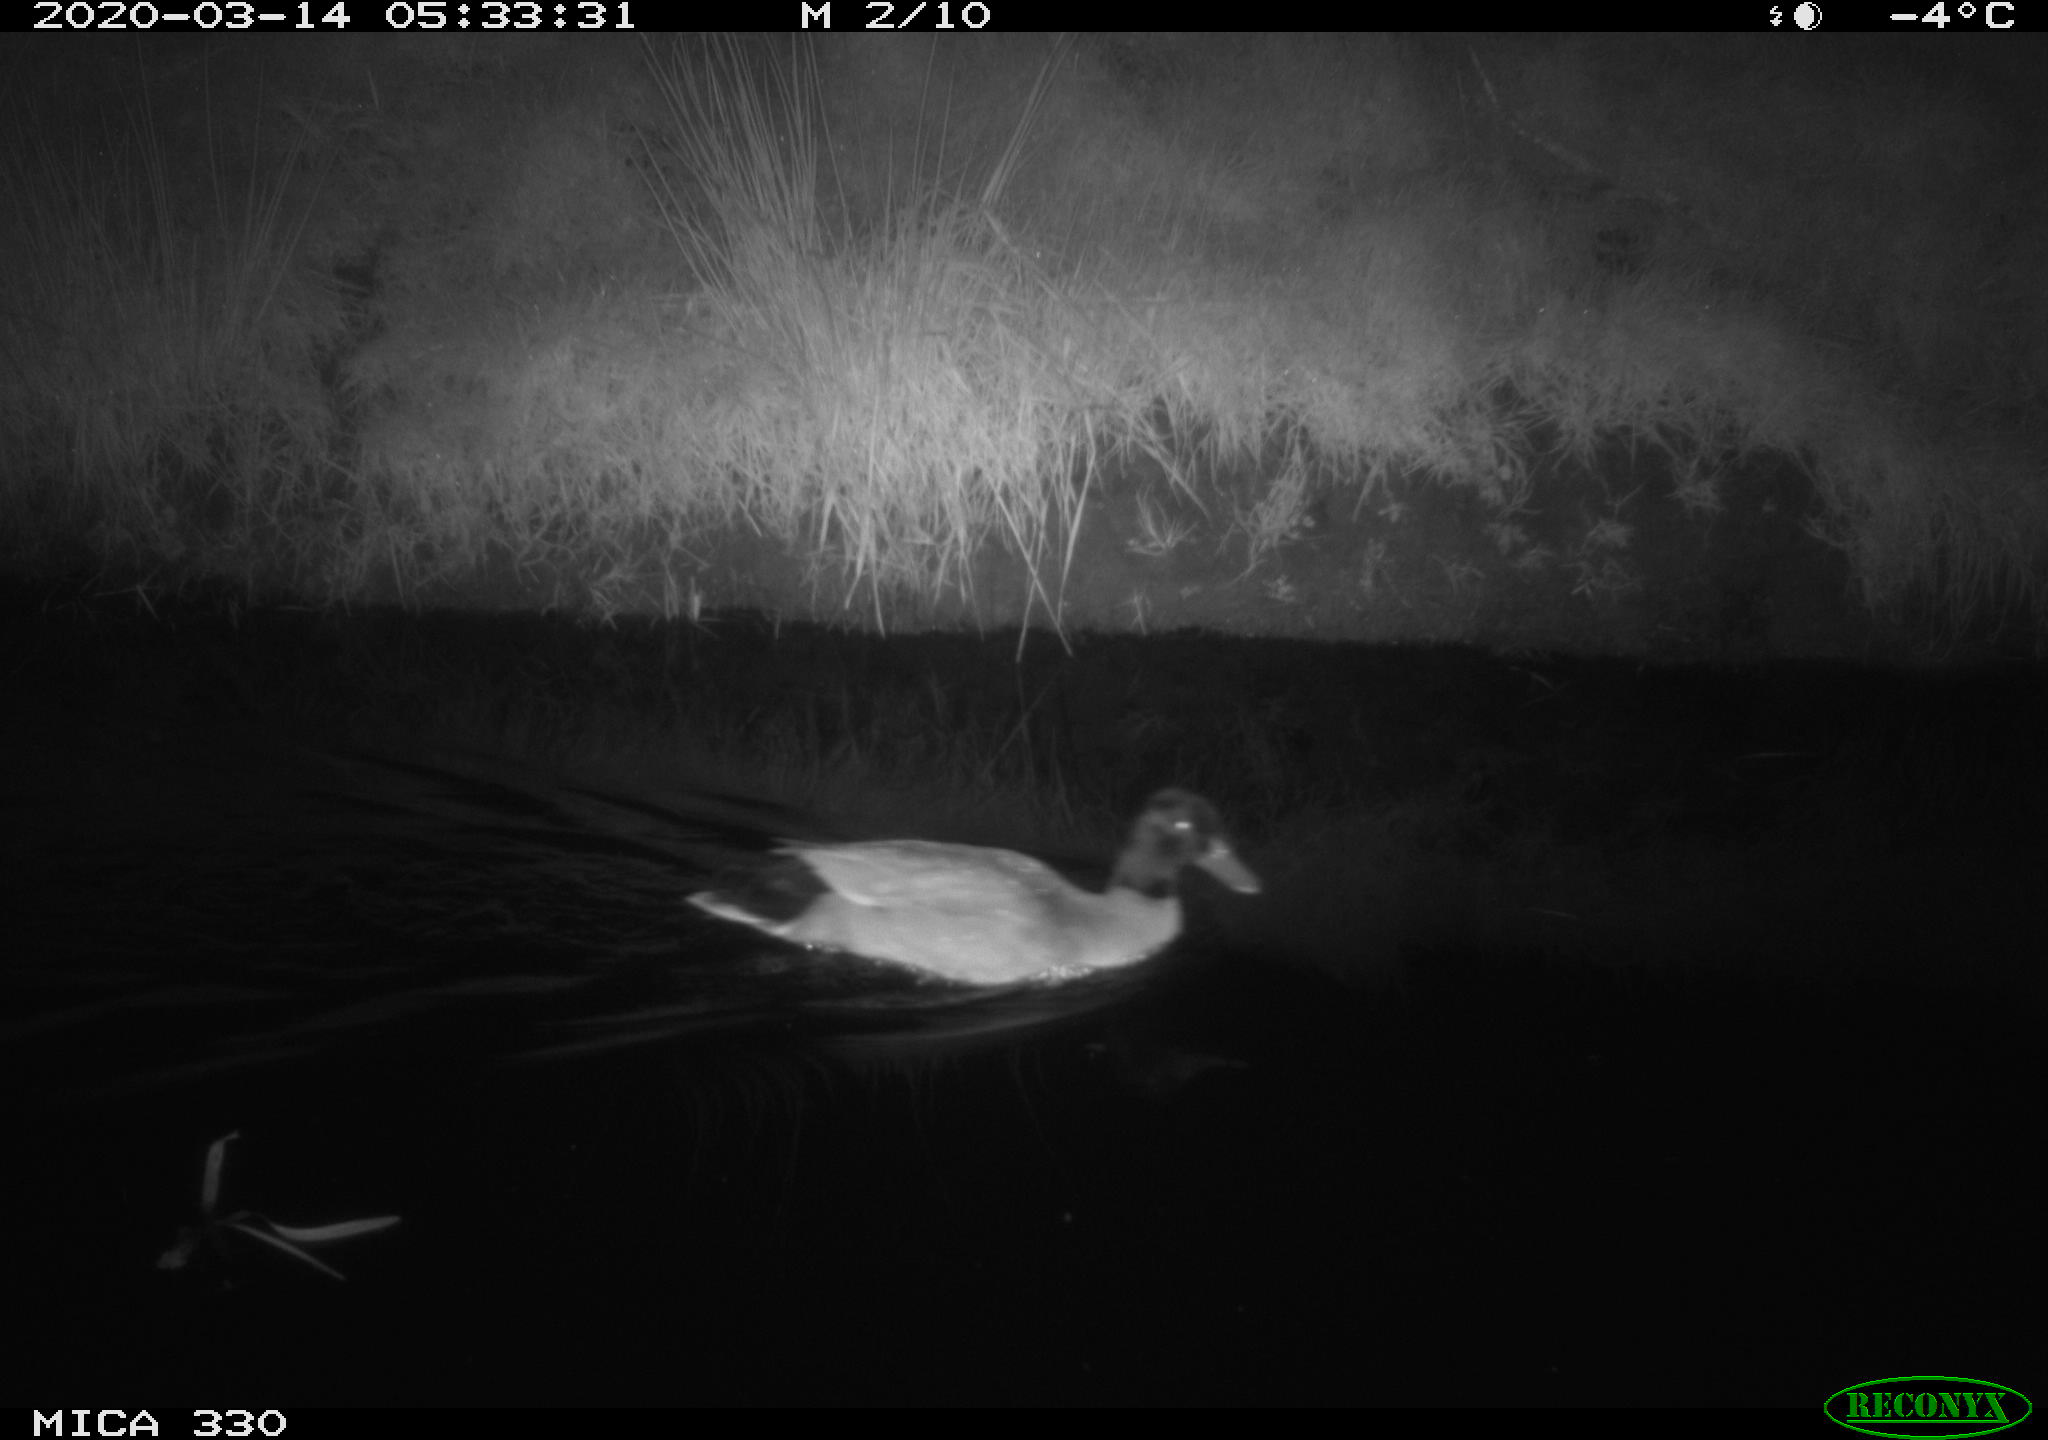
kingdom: Animalia
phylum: Chordata
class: Aves
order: Anseriformes
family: Anatidae
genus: Anas
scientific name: Anas platyrhynchos
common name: Mallard
